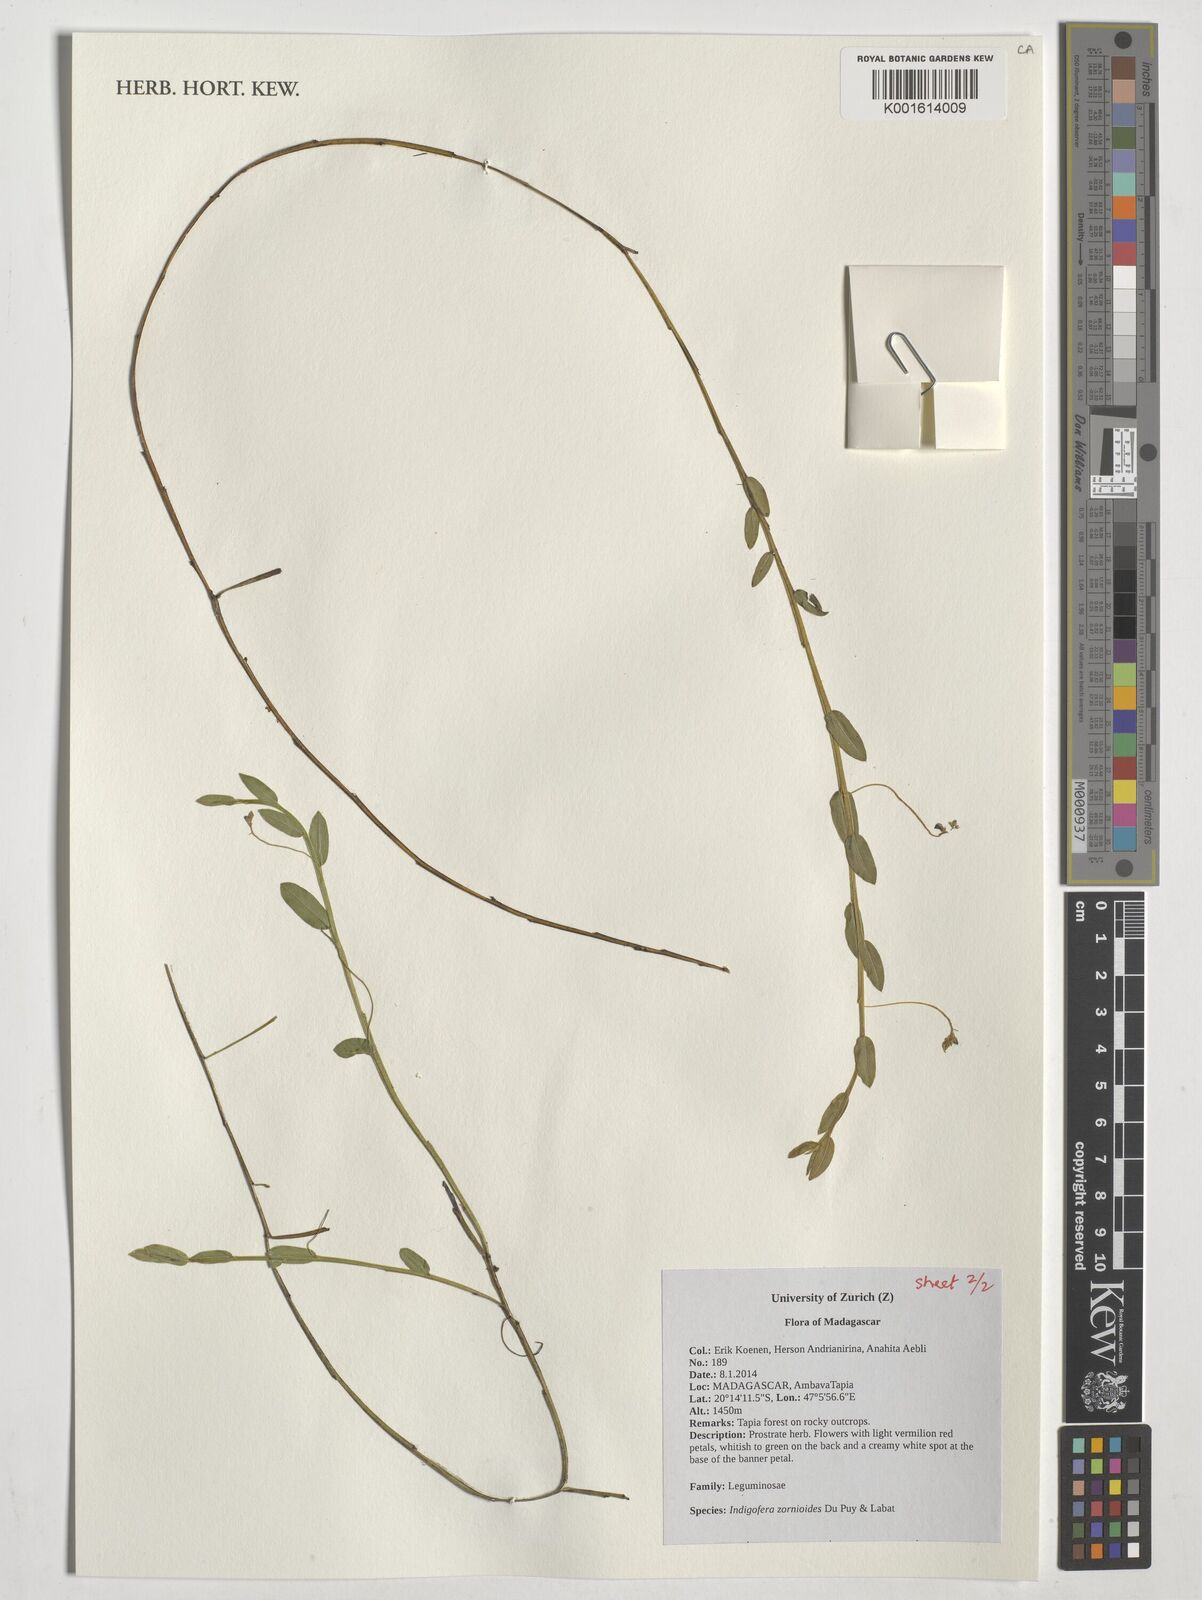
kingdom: Plantae
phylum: Tracheophyta
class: Magnoliopsida
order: Fabales
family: Fabaceae
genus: Indigofera
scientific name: Indigofera zornioides
